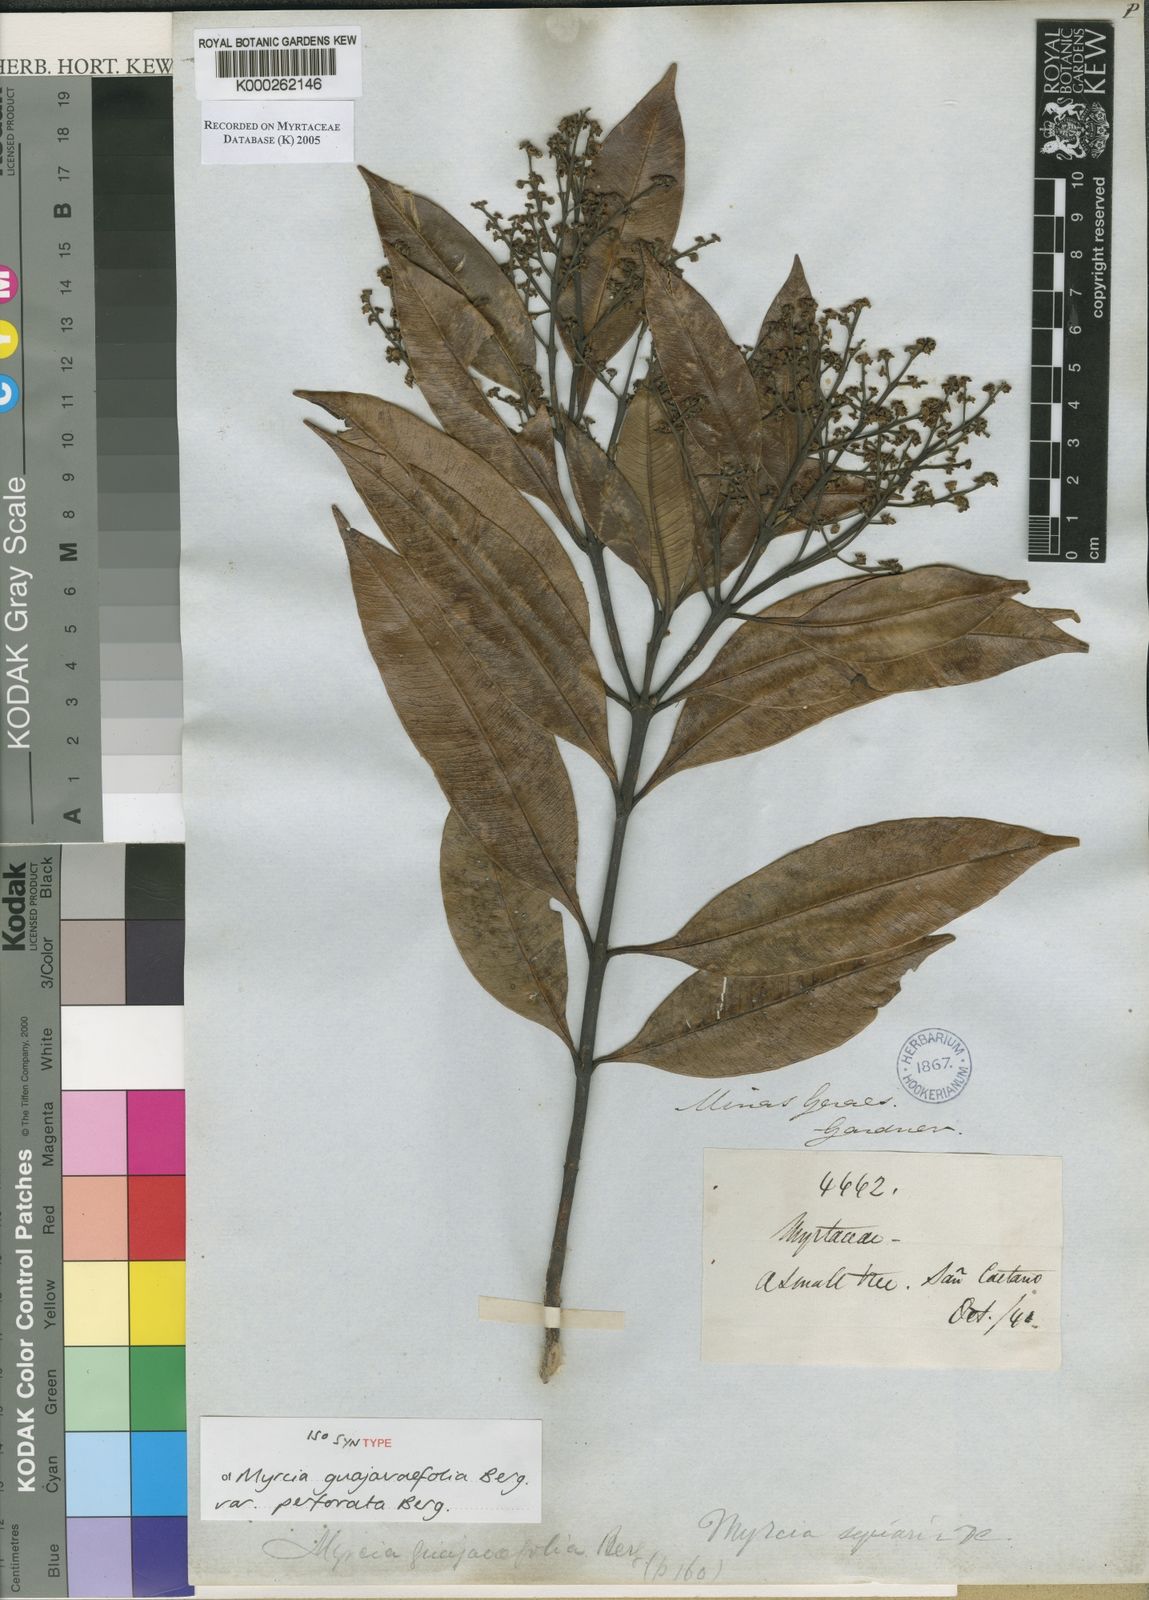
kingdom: Plantae
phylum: Tracheophyta
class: Magnoliopsida
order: Myrtales
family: Myrtaceae
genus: Myrcia
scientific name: Myrcia splendens
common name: Surinam cherry
